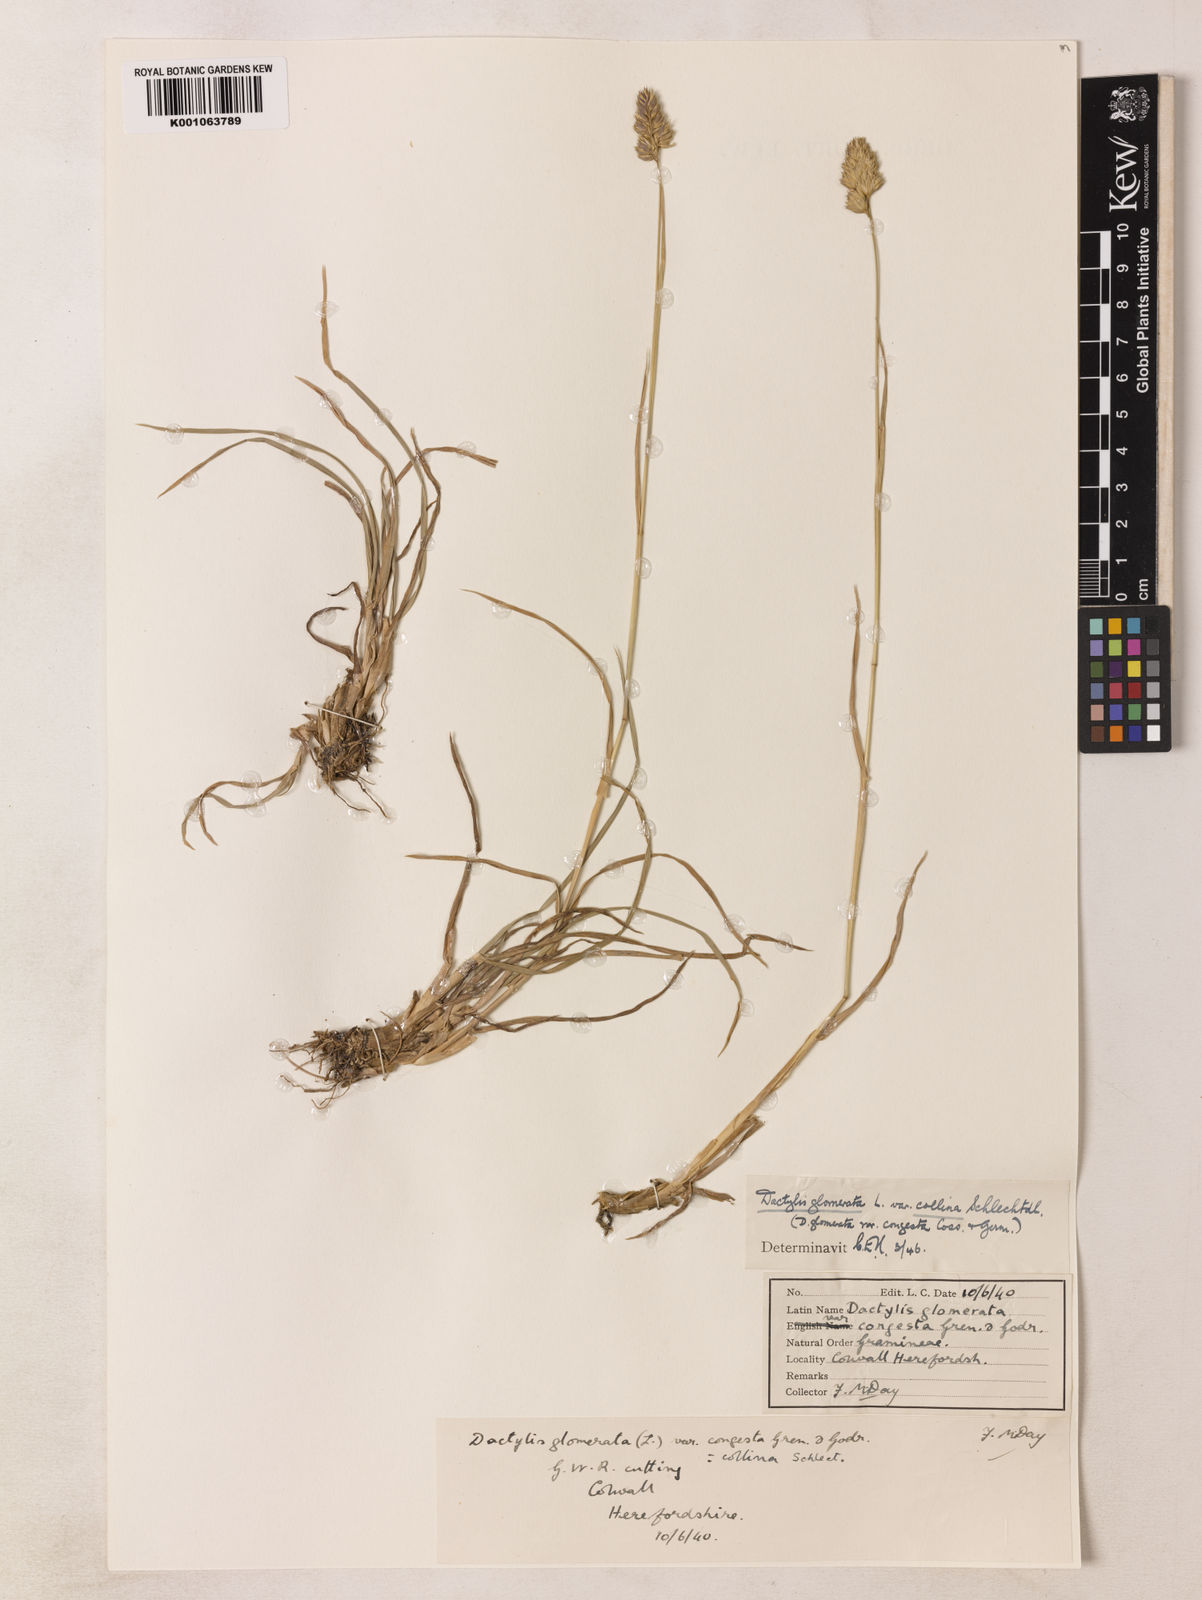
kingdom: Plantae
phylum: Tracheophyta
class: Liliopsida
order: Poales
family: Poaceae
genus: Dactylis
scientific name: Dactylis glomerata
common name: Orchardgrass
